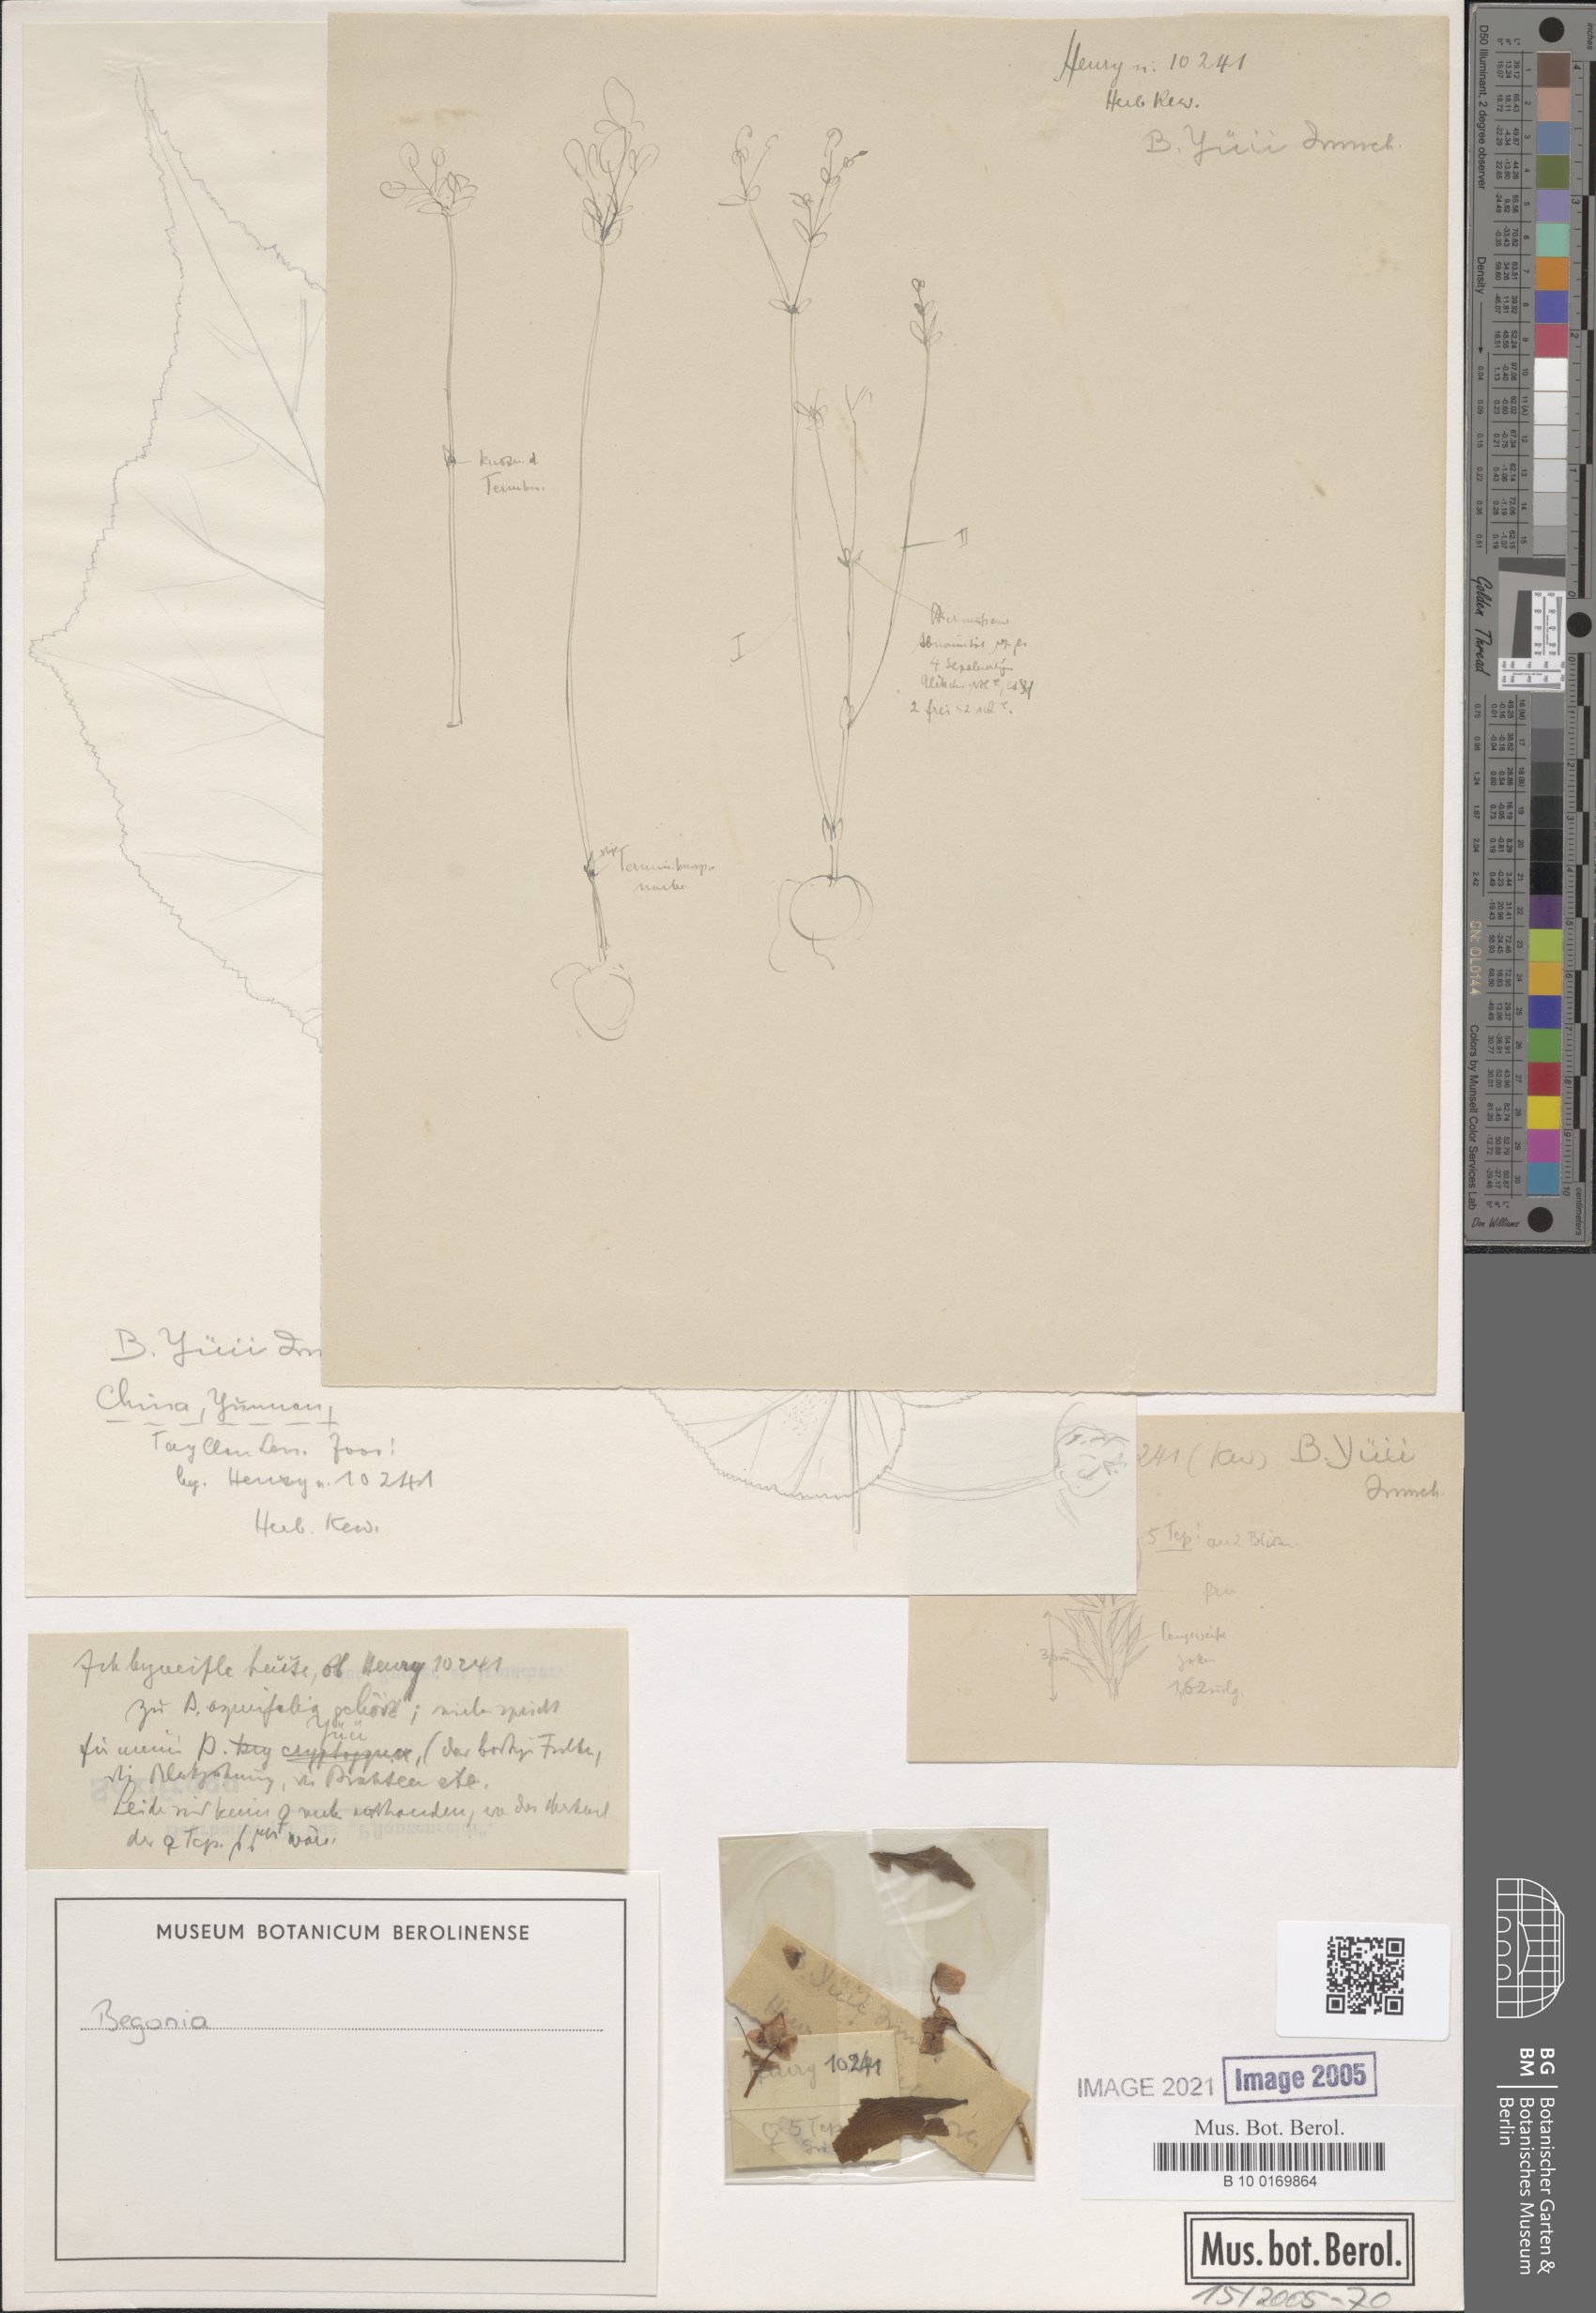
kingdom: Plantae
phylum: Tracheophyta
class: Magnoliopsida
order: Cucurbitales
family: Begoniaceae
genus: Begonia
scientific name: Begonia yui
